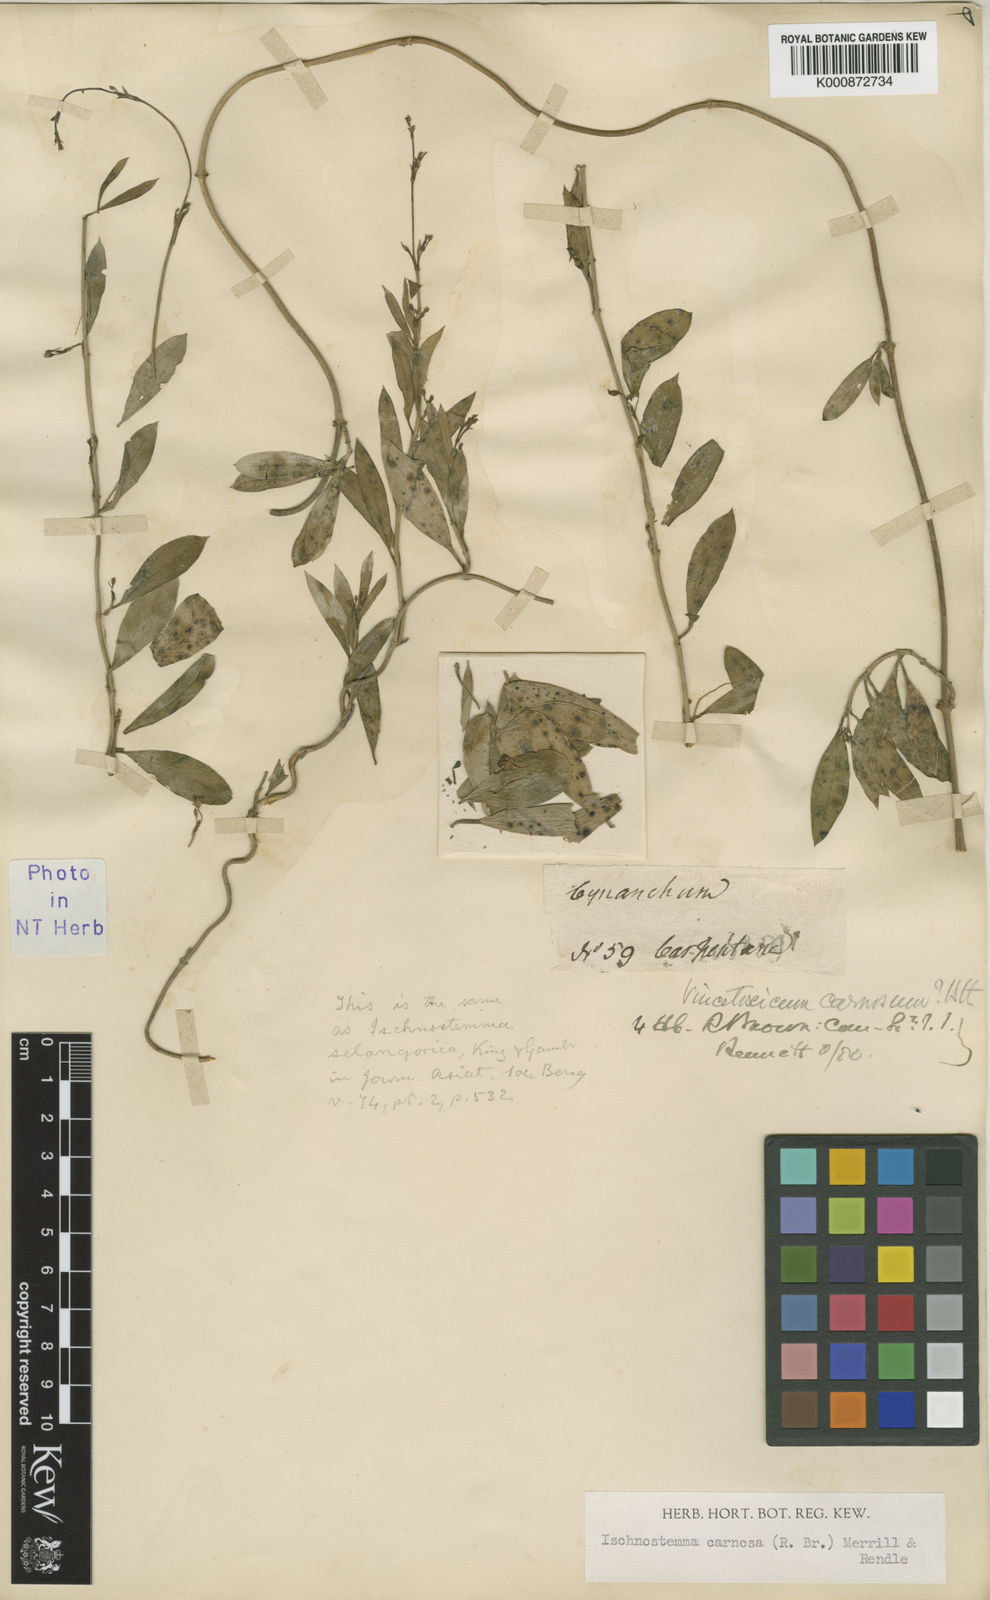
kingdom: Plantae
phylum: Tracheophyta
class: Magnoliopsida
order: Gentianales
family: Apocynaceae
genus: Vincetoxicum
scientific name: Vincetoxicum carnosum
